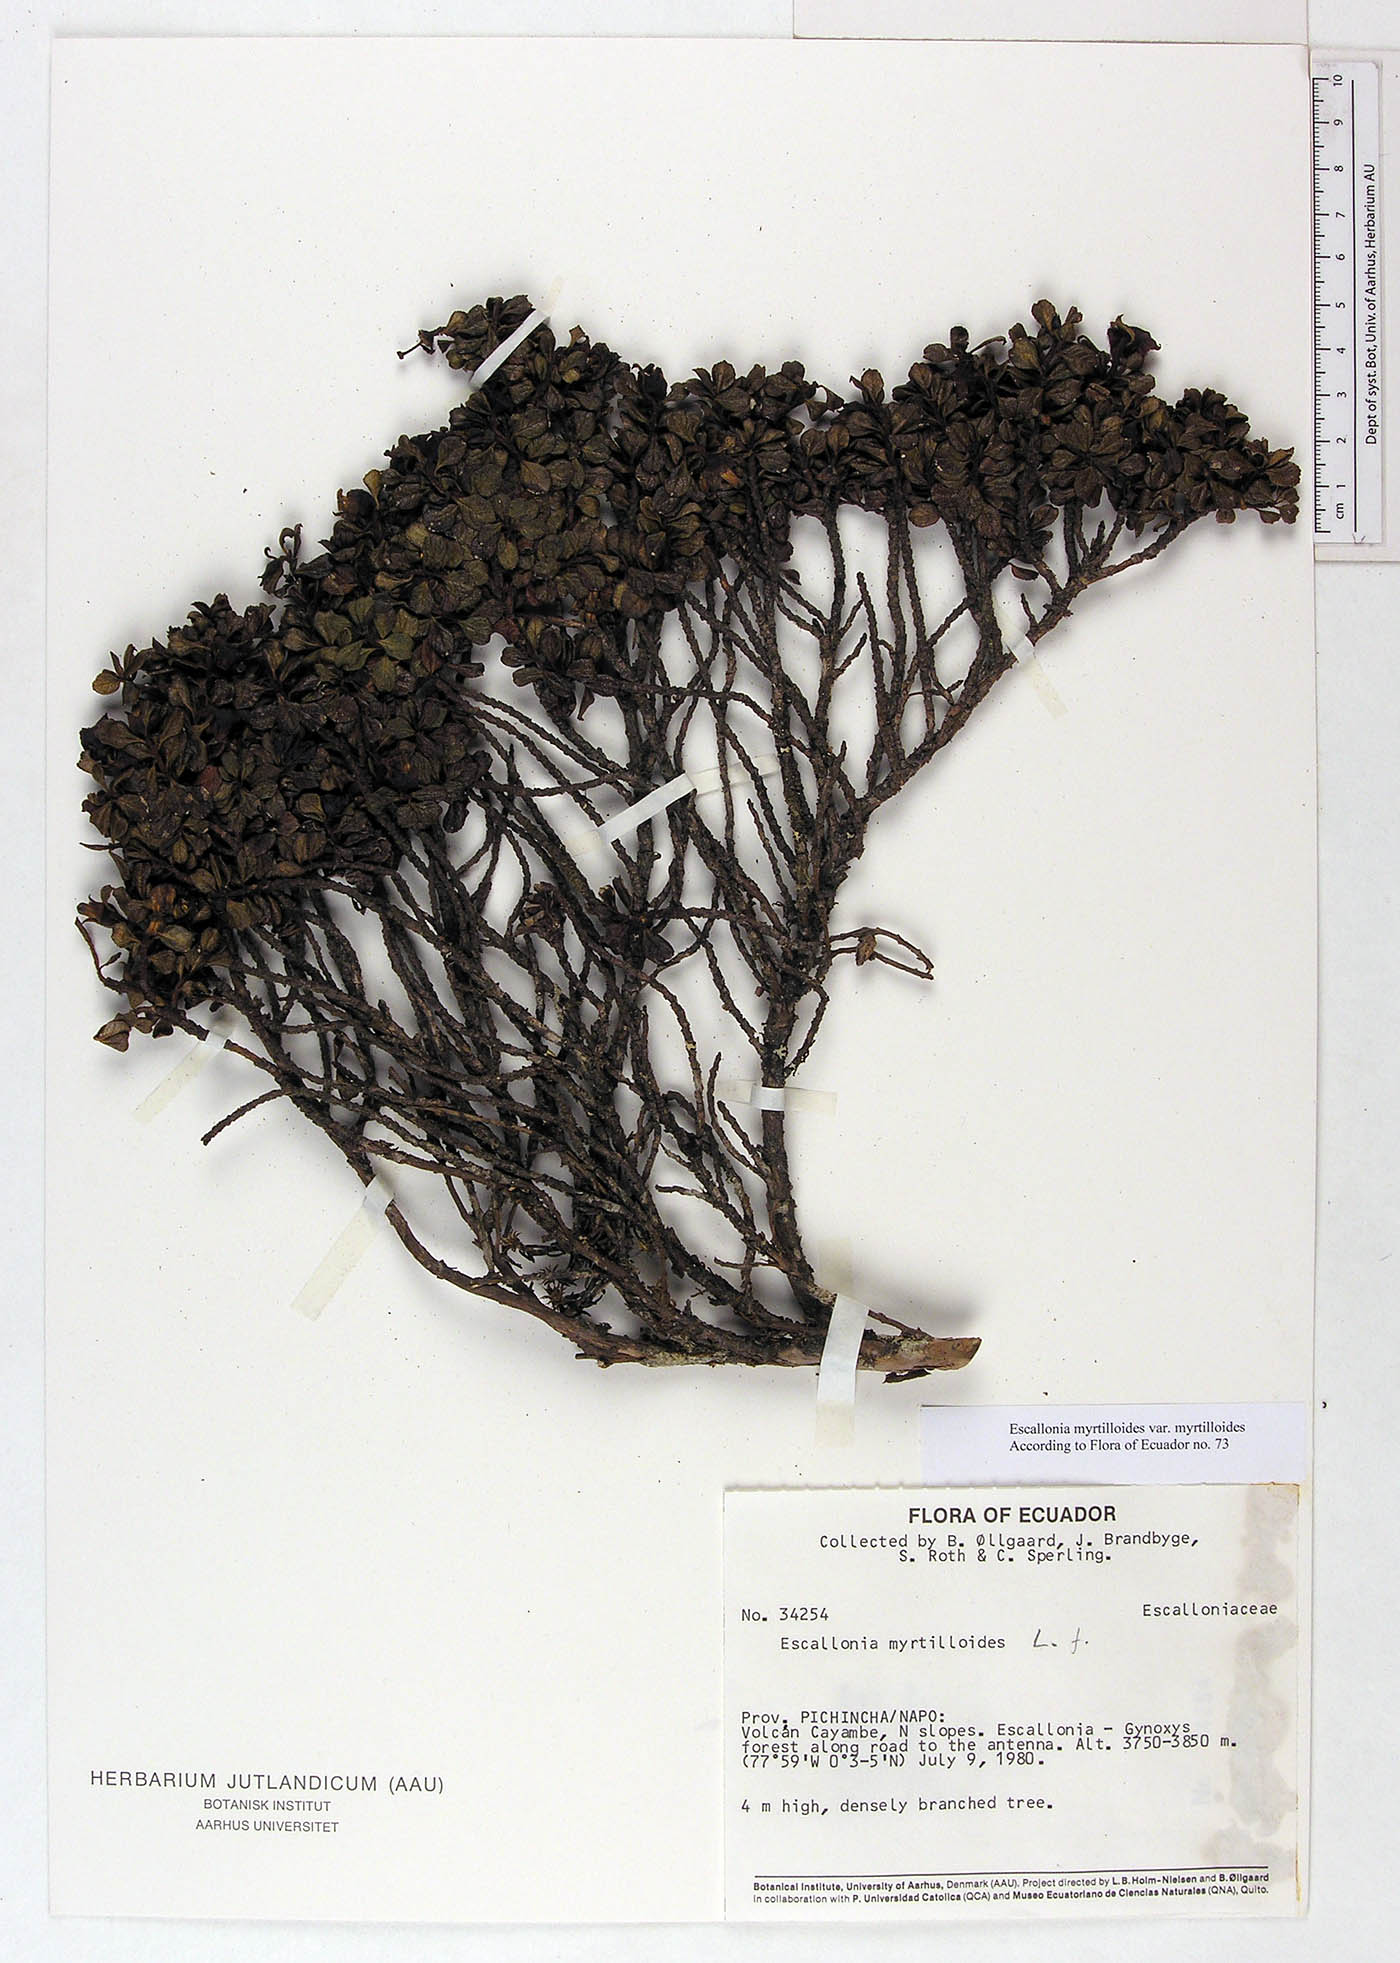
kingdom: Plantae
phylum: Tracheophyta
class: Magnoliopsida
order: Escalloniales
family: Escalloniaceae
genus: Escallonia
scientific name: Escallonia myrtilloides
